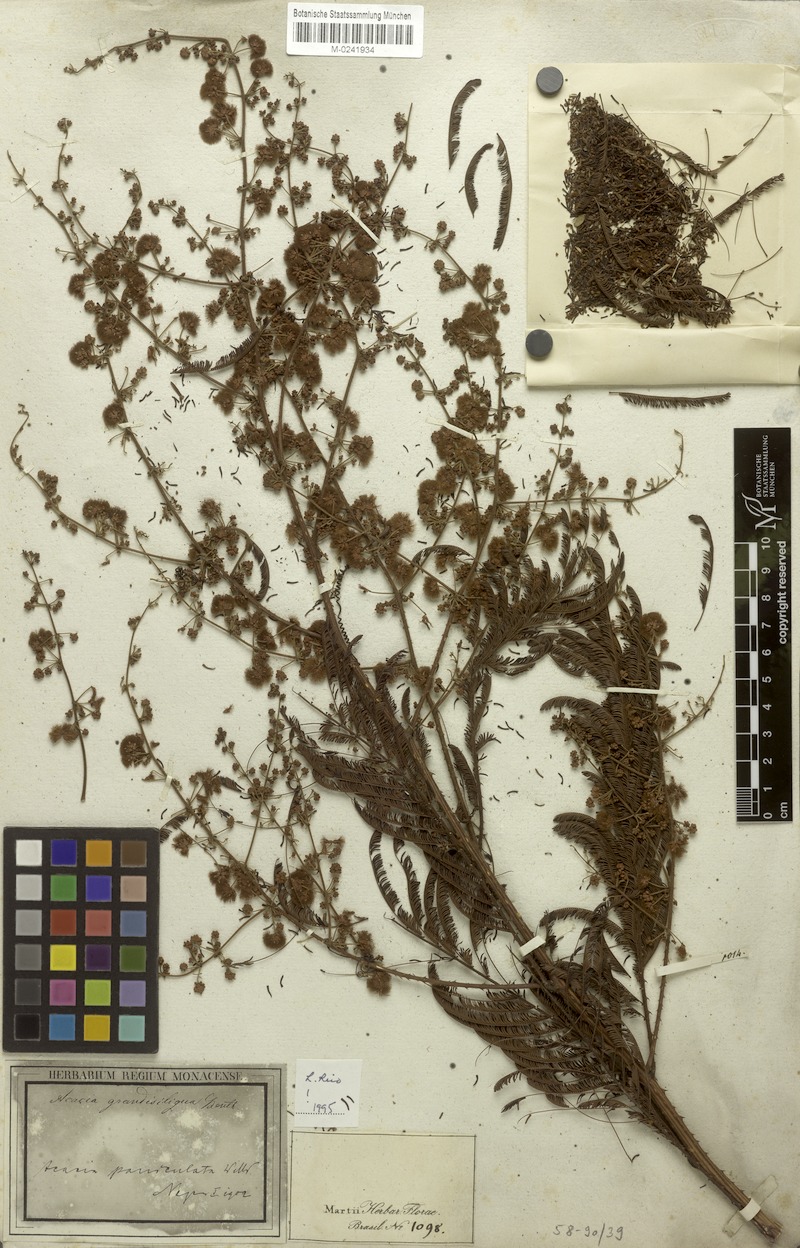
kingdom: Plantae
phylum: Tracheophyta
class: Magnoliopsida
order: Fabales
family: Fabaceae
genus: Senegalia
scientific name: Senegalia grandisiliqua
